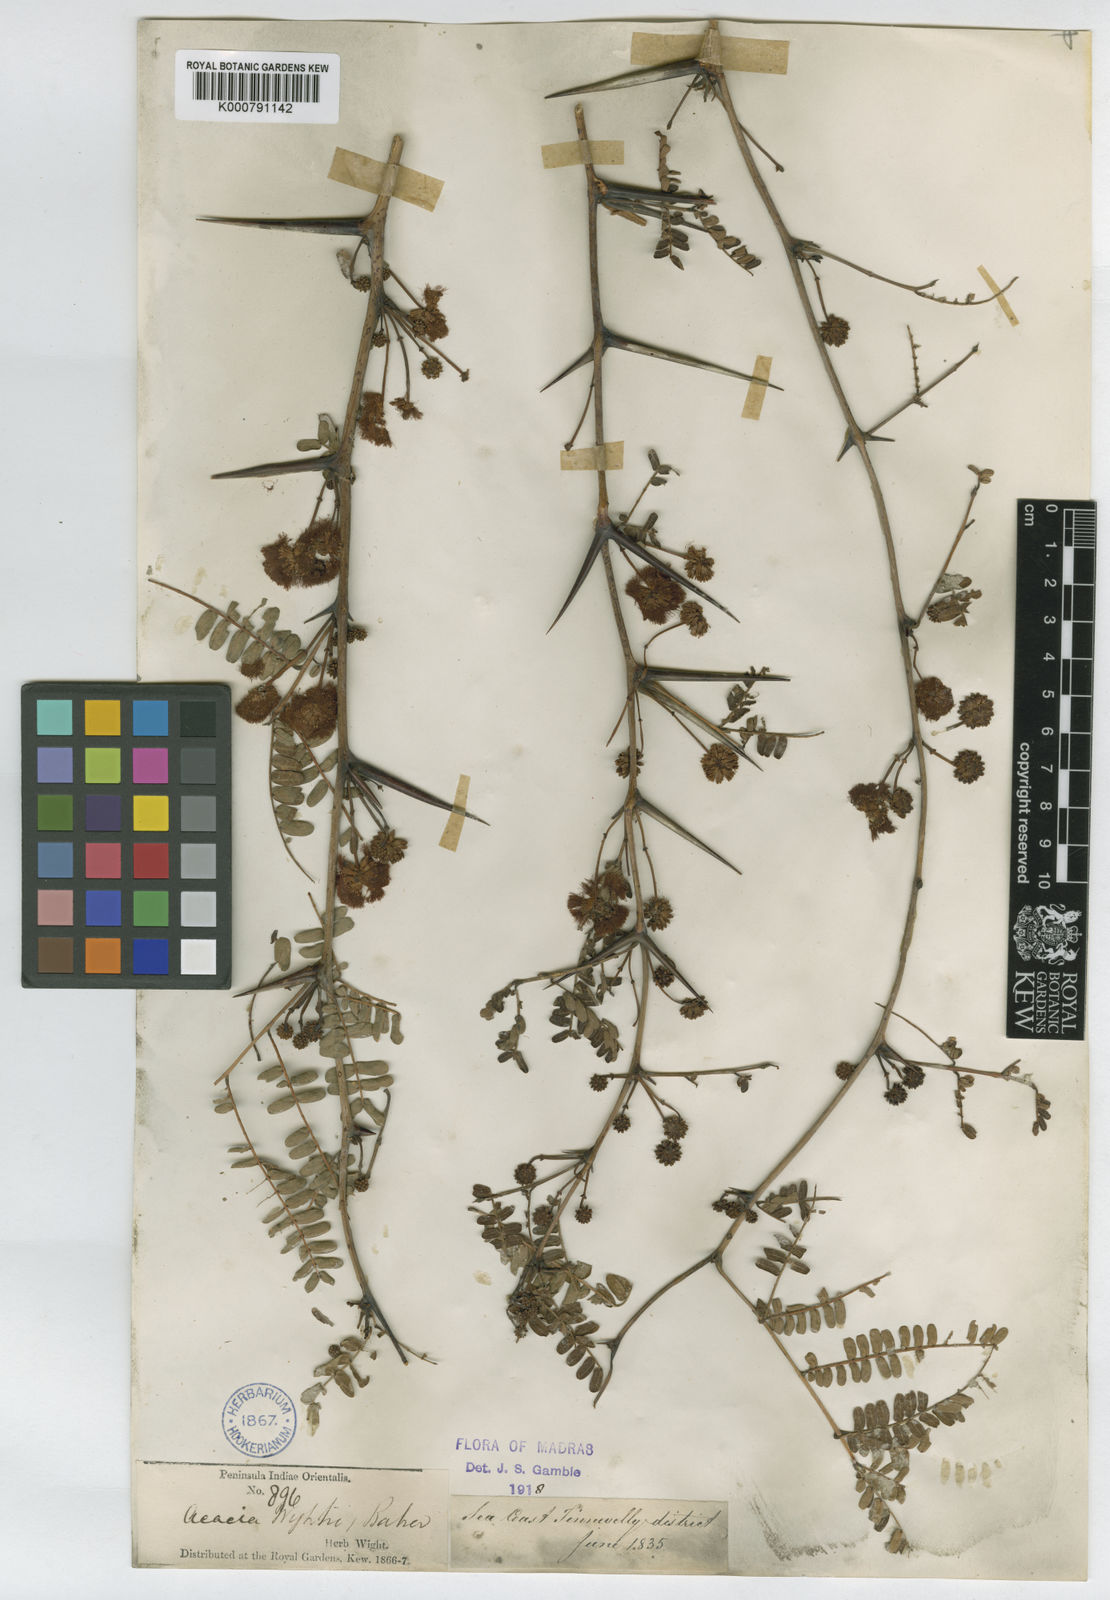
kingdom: Plantae
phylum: Tracheophyta
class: Magnoliopsida
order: Fabales
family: Fabaceae
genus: Acacia
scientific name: Acacia
